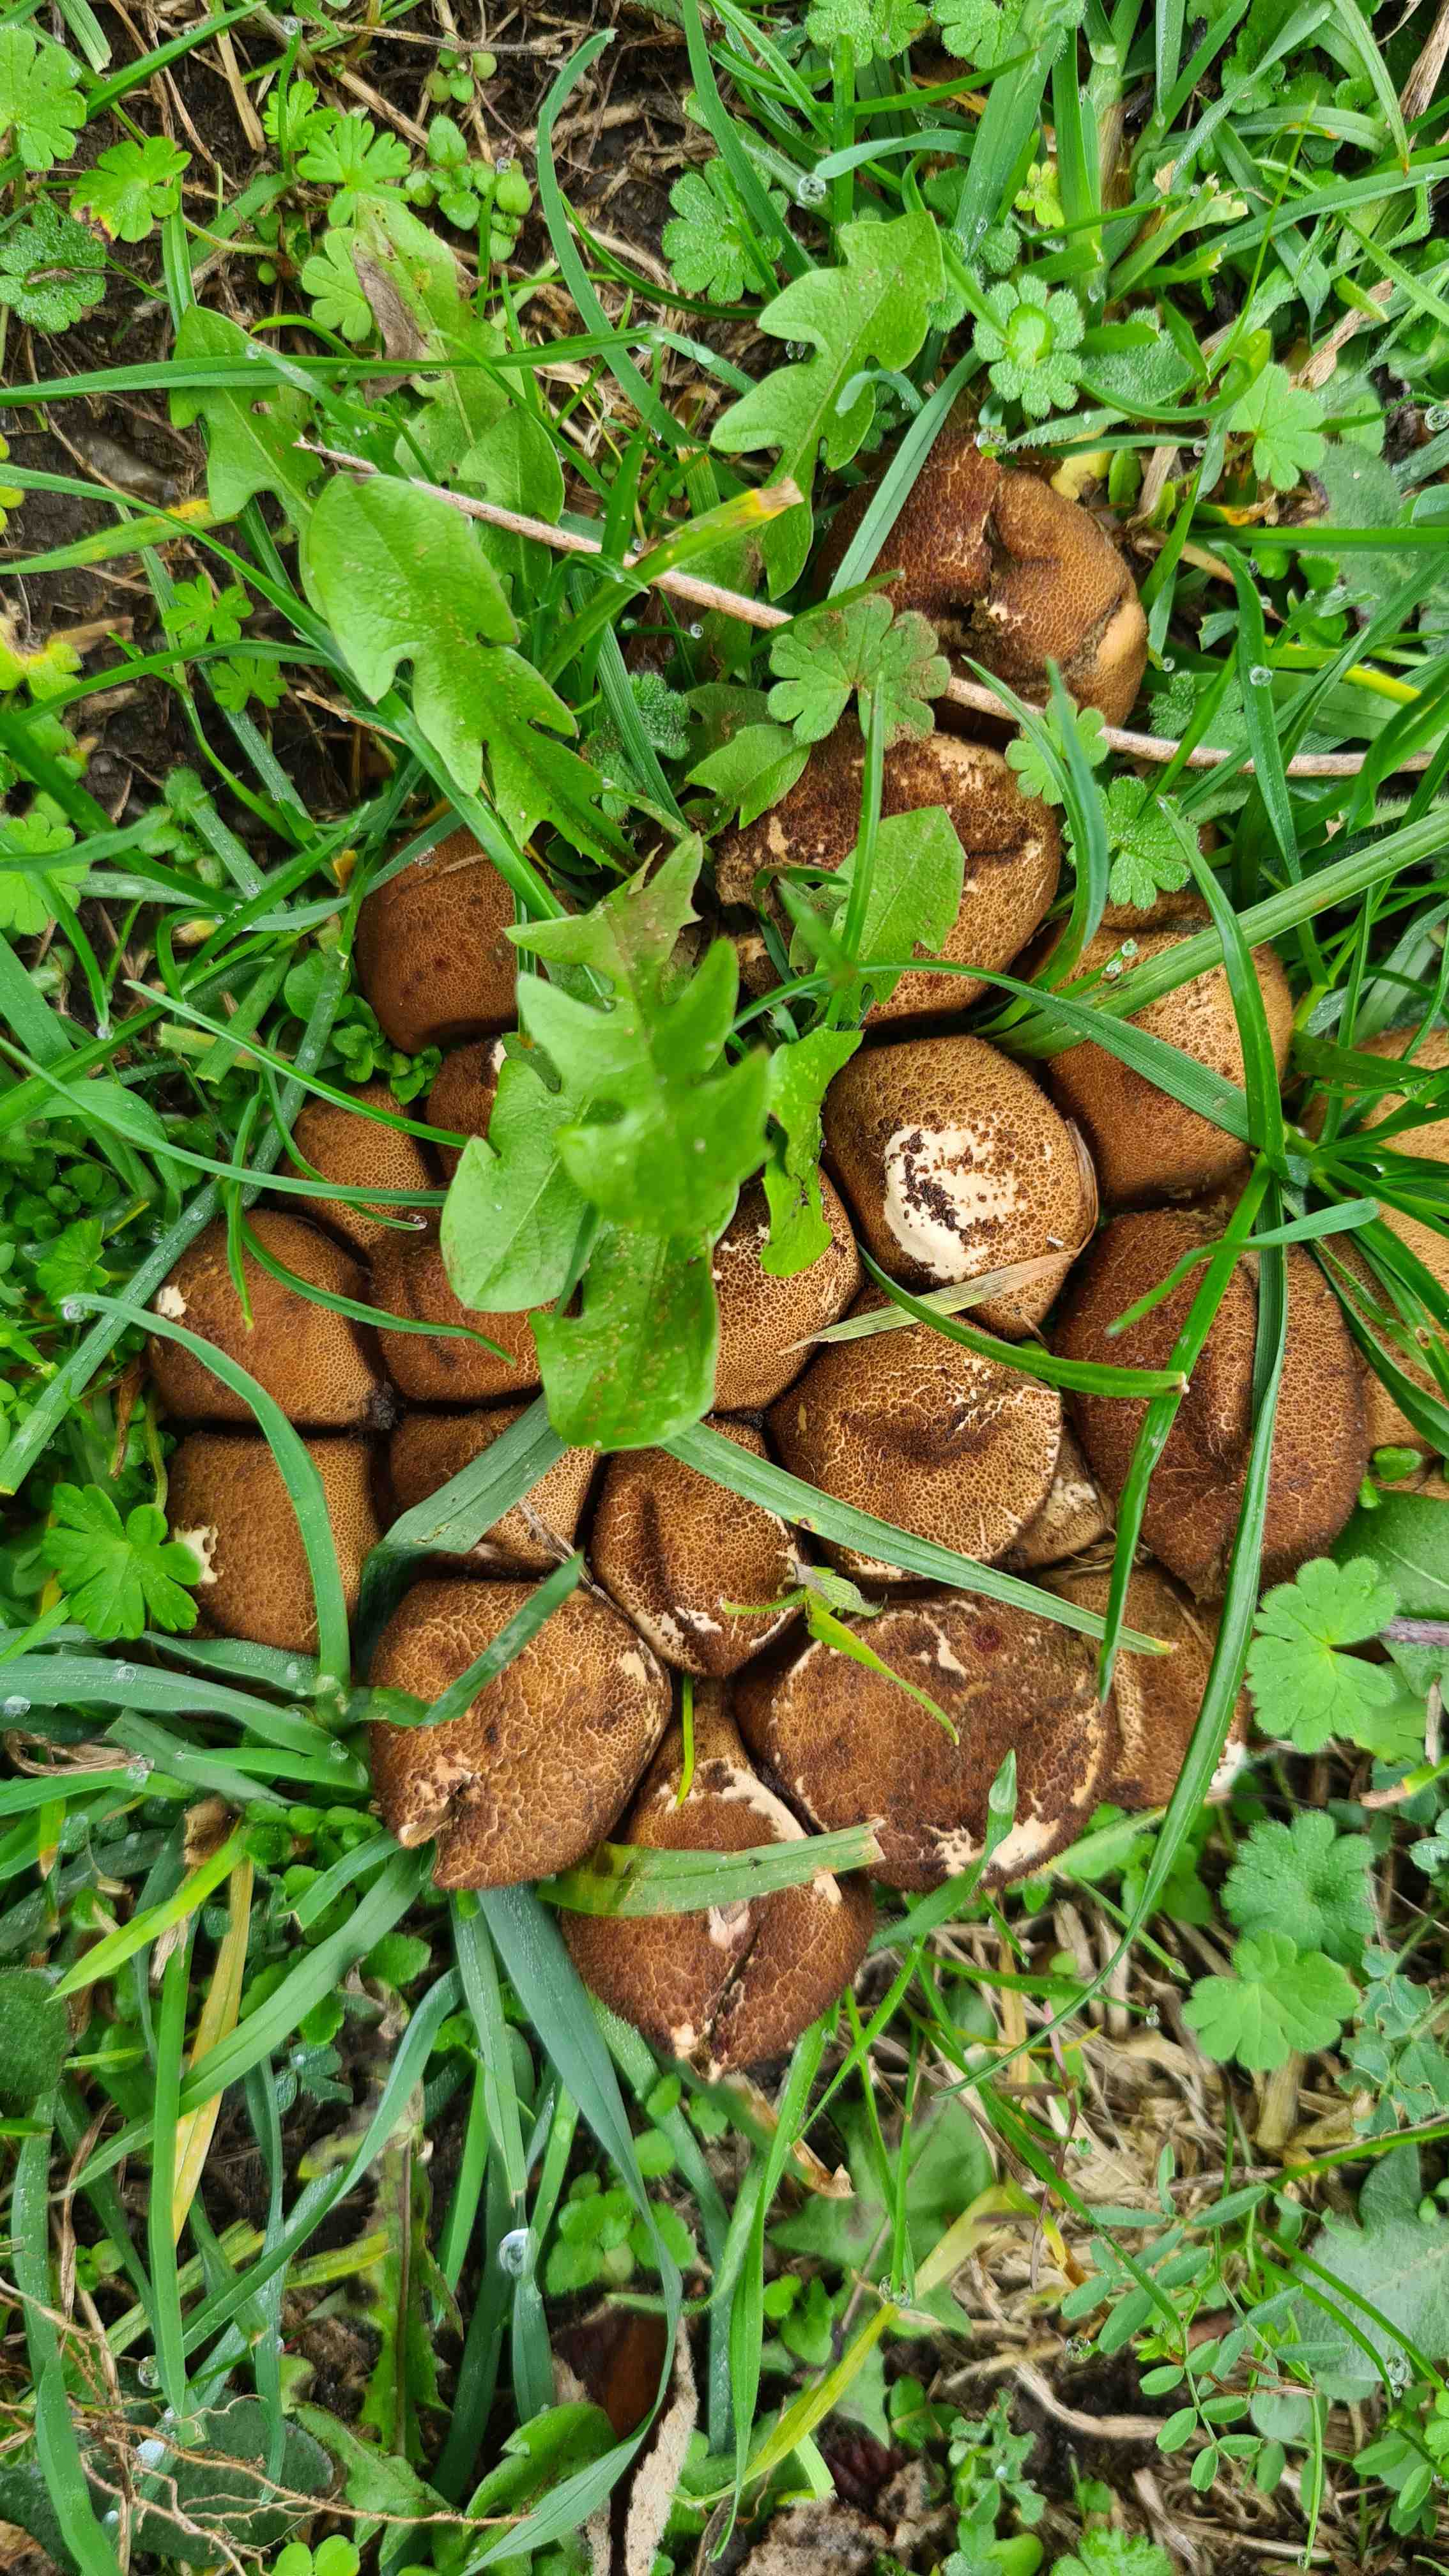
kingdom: Fungi
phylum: Basidiomycota
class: Agaricomycetes
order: Agaricales
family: Lycoperdaceae
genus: Apioperdon
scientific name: Apioperdon pyriforme
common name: pære-støvbold
